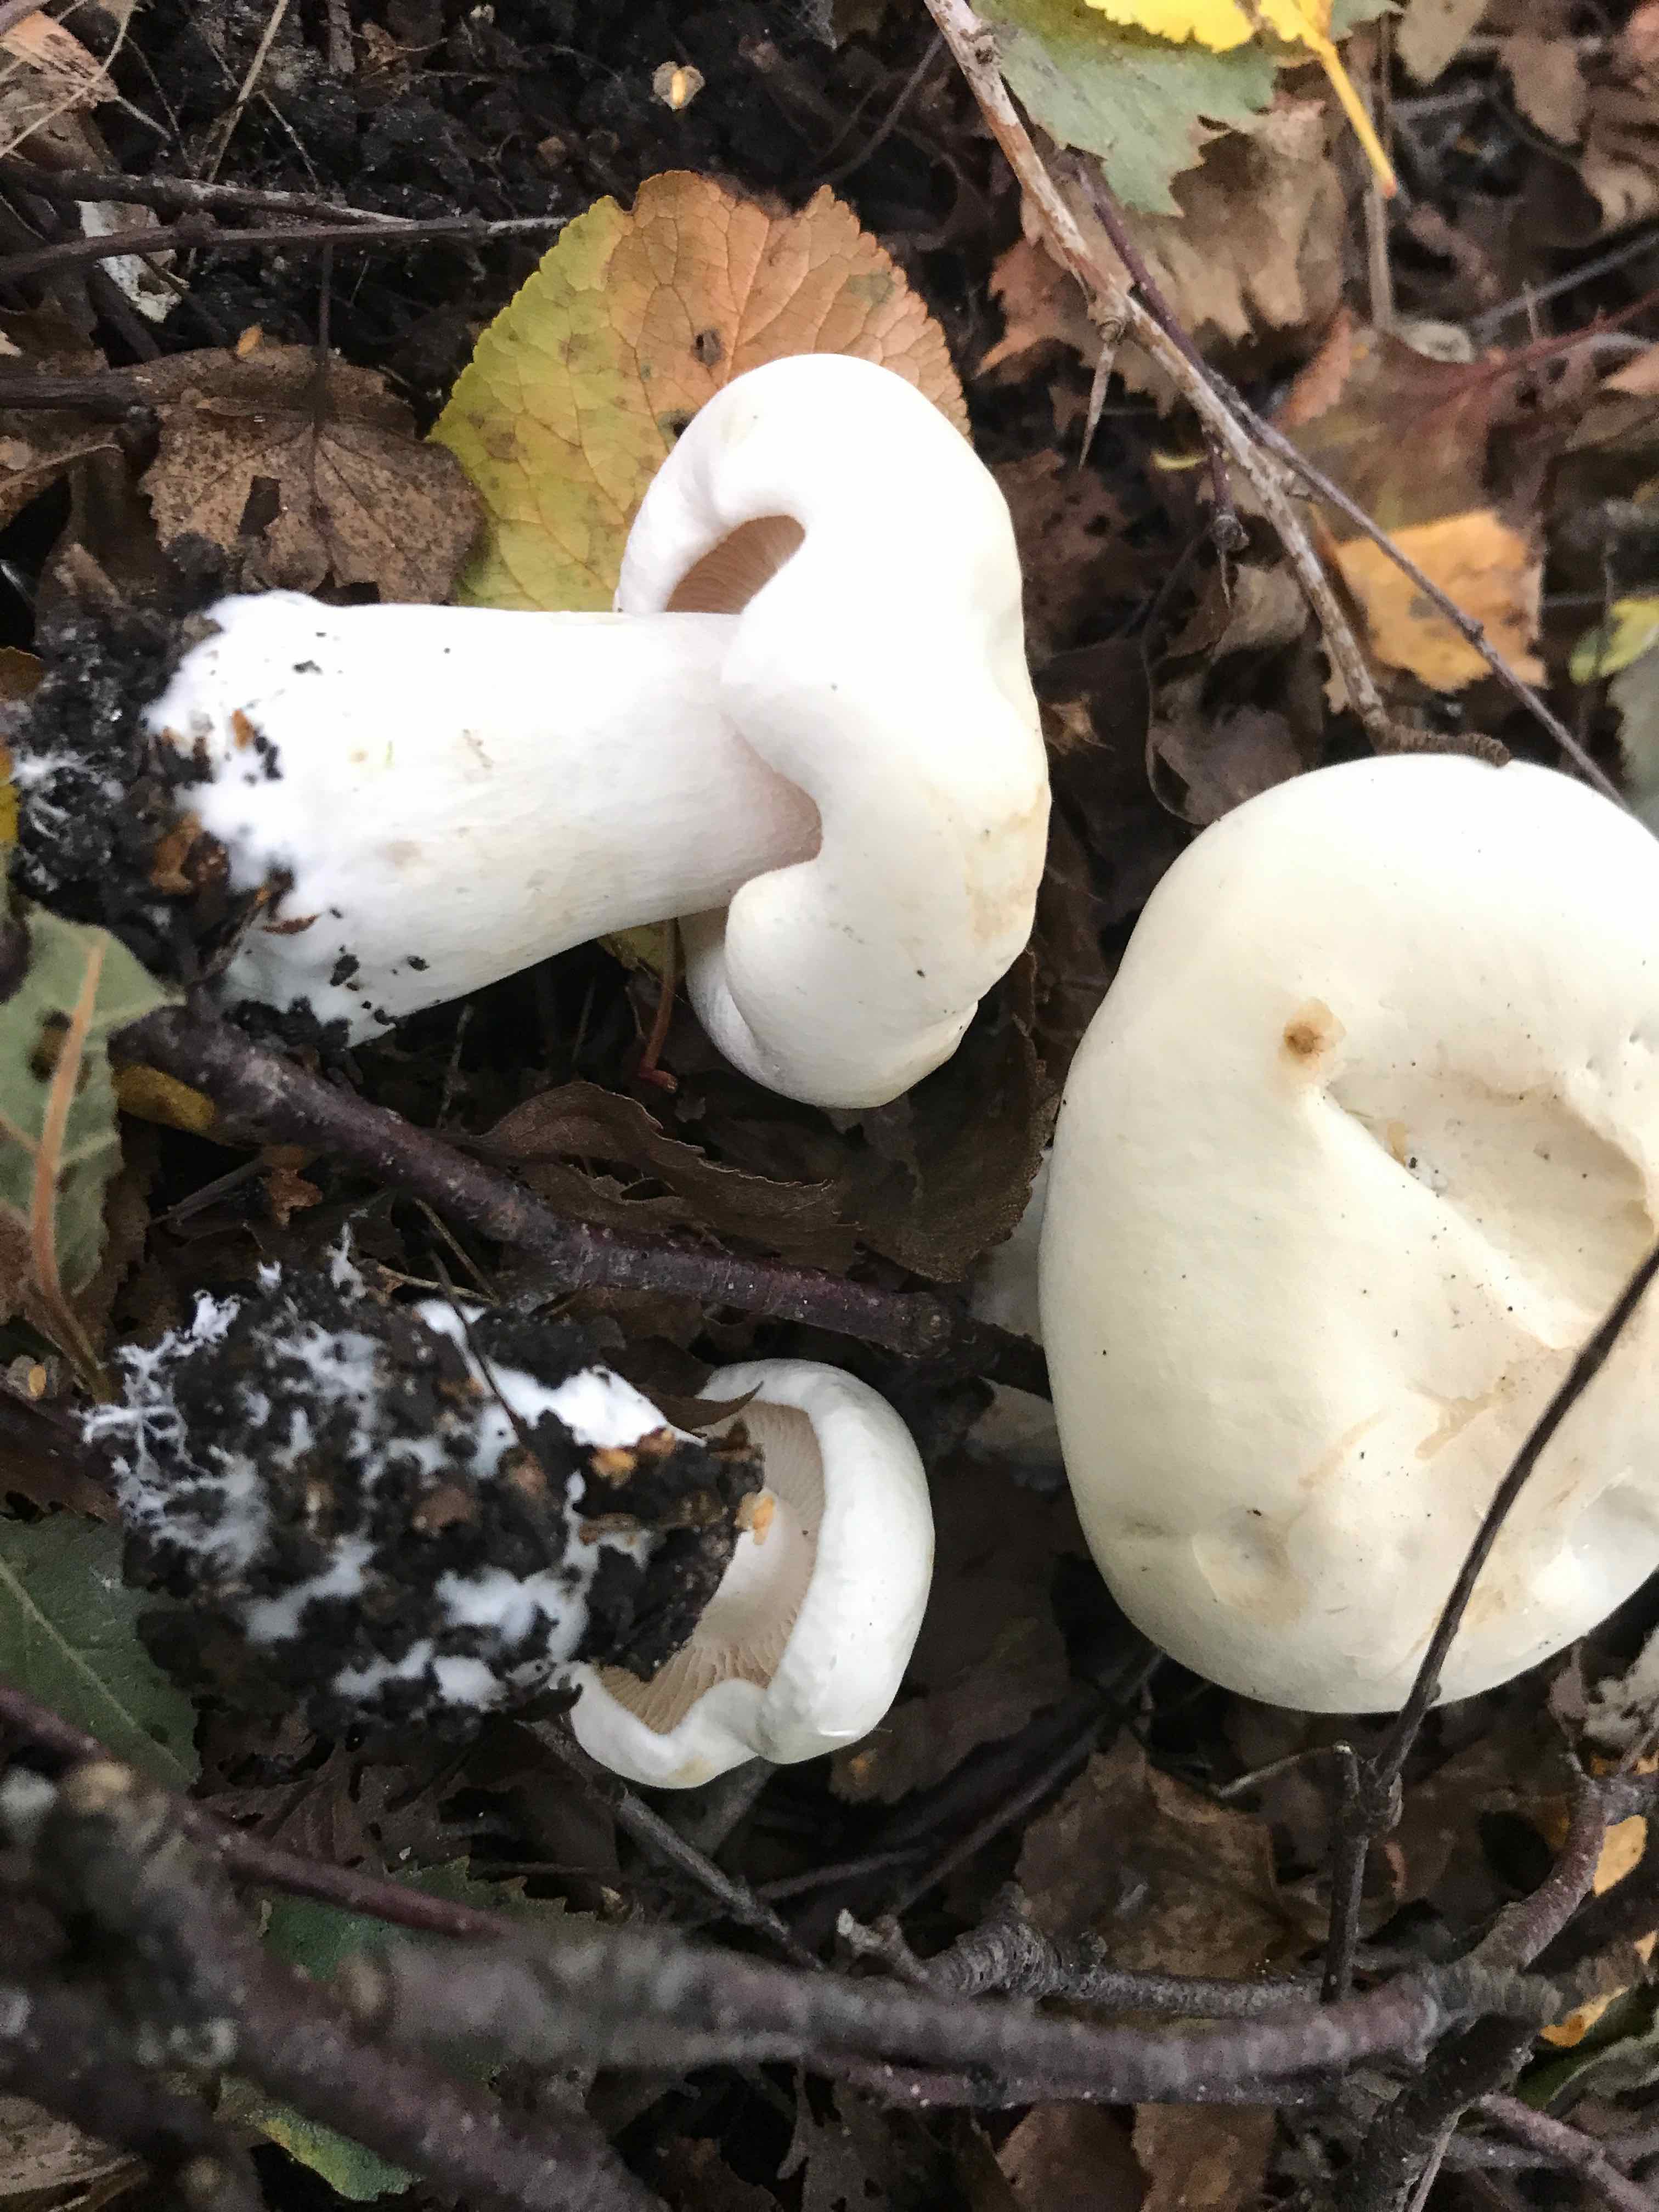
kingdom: Fungi
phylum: Basidiomycota
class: Agaricomycetes
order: Agaricales
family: Tricholomataceae
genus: Tricholoma
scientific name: Tricholoma stiparophyllum
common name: hvid ridderhat
